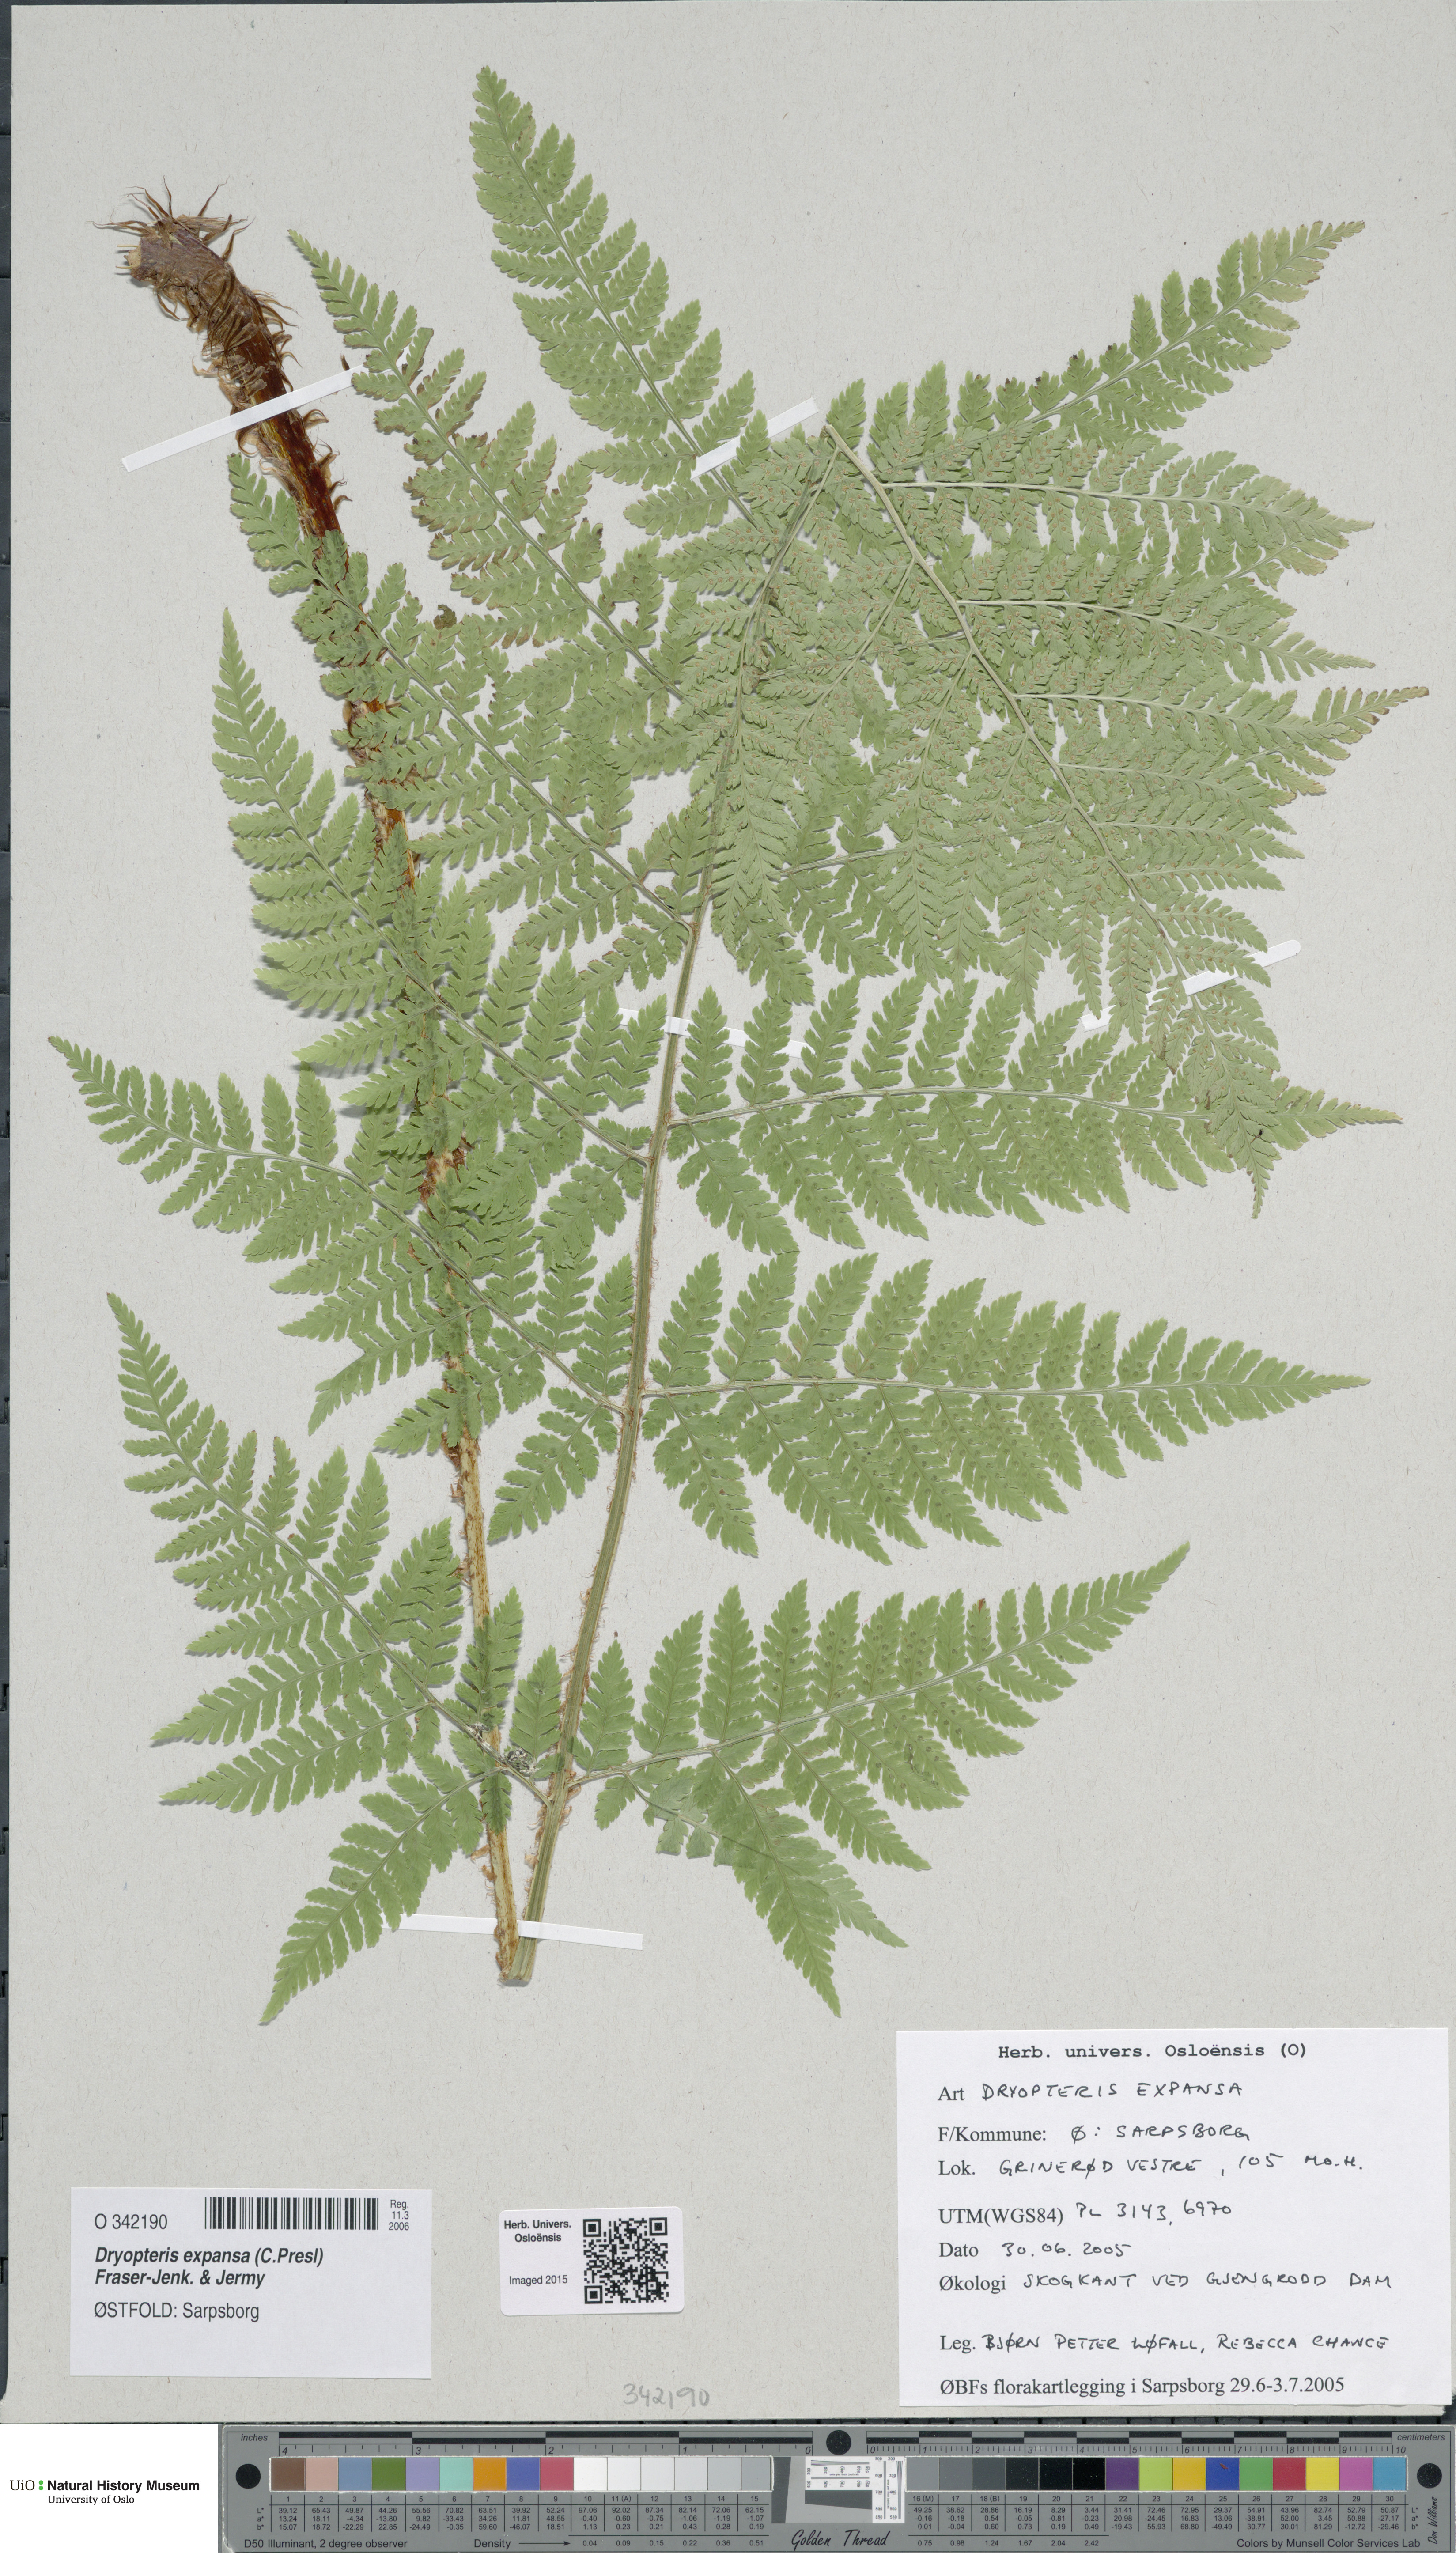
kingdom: Plantae
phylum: Tracheophyta
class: Polypodiopsida
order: Polypodiales
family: Dryopteridaceae
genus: Dryopteris
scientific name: Dryopteris expansa
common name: Northern buckler fern
